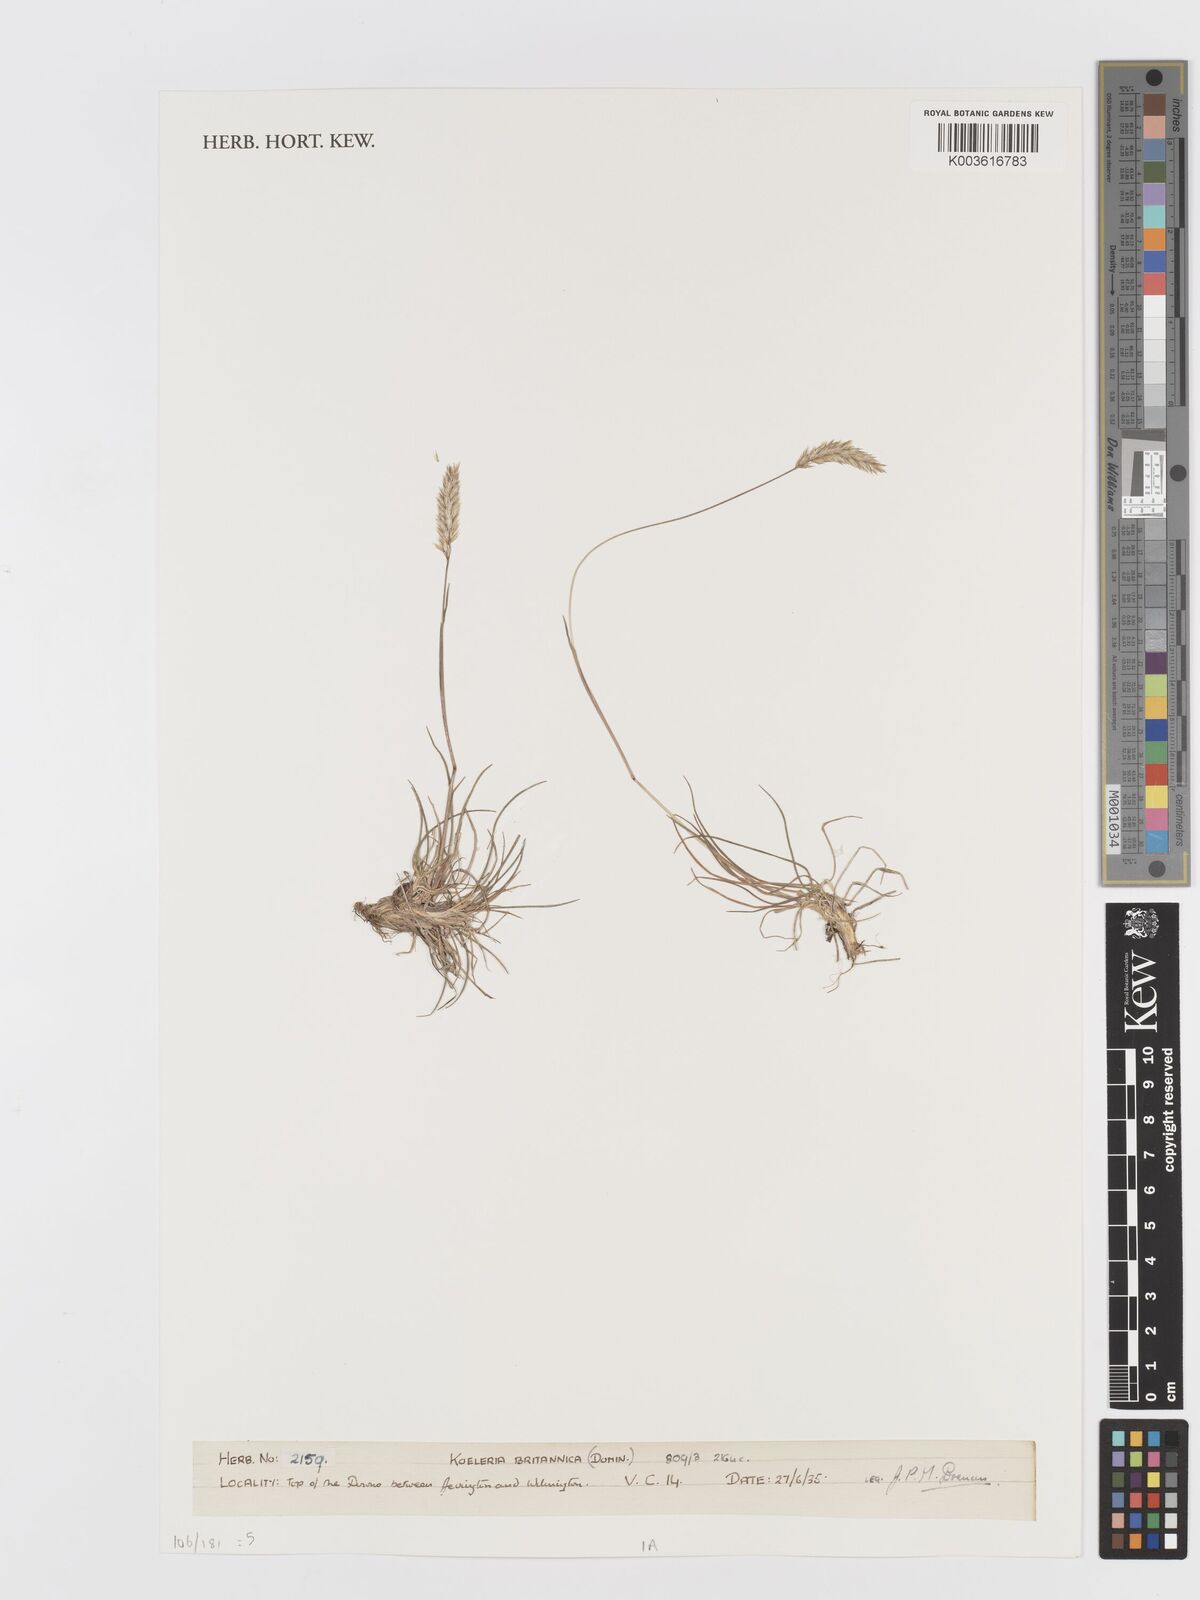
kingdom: Plantae
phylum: Tracheophyta
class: Liliopsida
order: Poales
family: Poaceae
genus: Koeleria
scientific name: Koeleria macrantha
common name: Crested hair-grass
